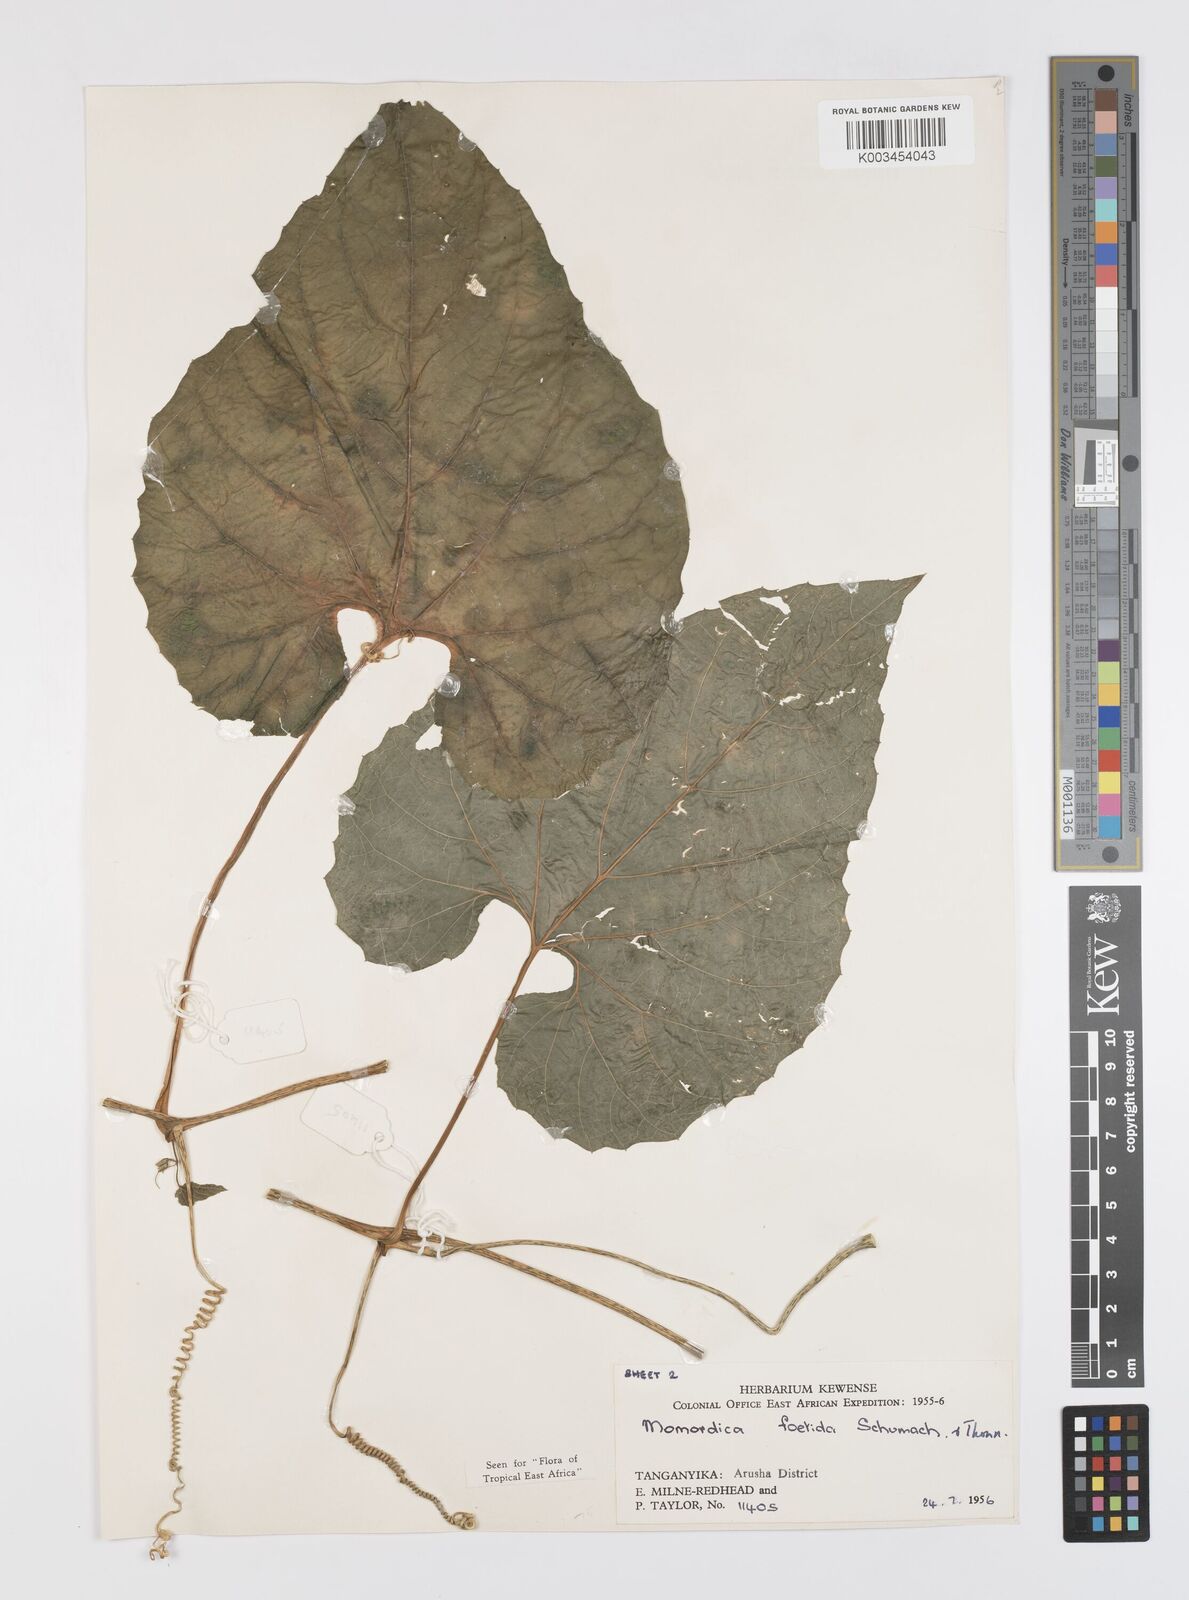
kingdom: Plantae
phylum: Tracheophyta
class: Magnoliopsida
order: Cucurbitales
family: Cucurbitaceae
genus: Momordica
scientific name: Momordica foetida
